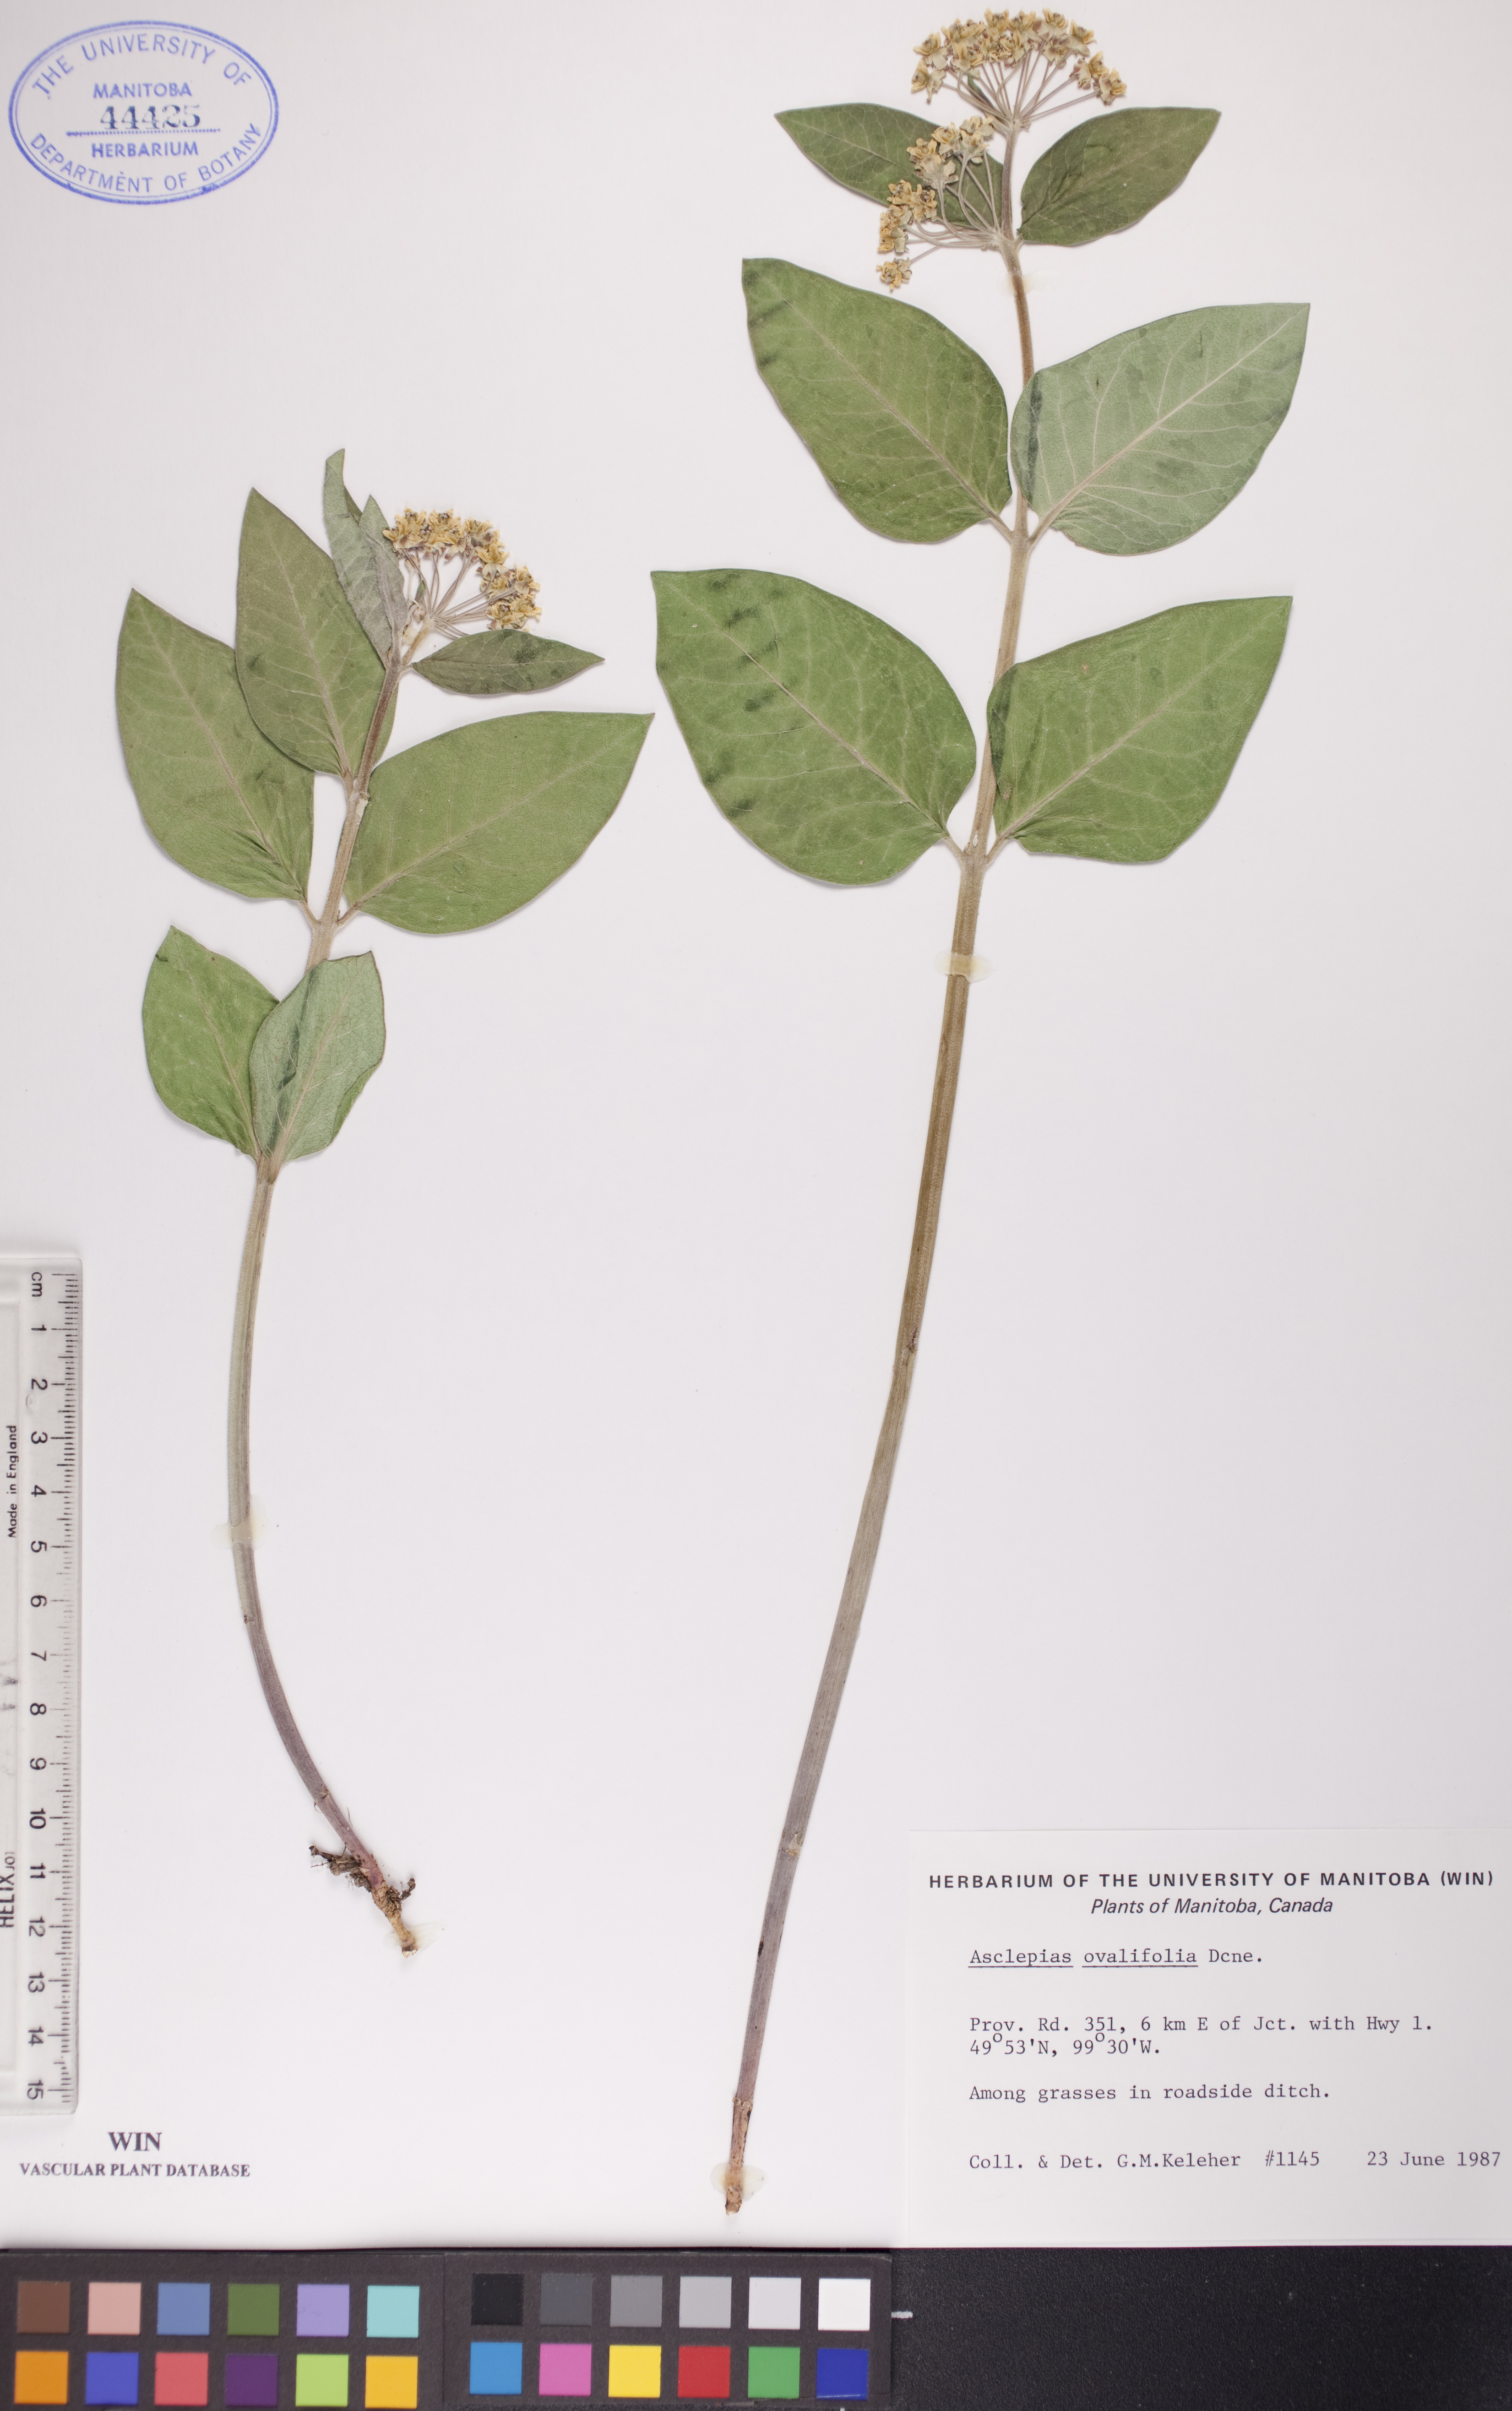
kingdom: Plantae
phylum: Tracheophyta
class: Magnoliopsida
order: Gentianales
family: Apocynaceae
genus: Asclepias
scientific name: Asclepias ovalifolia
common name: Dwarf milkweed
